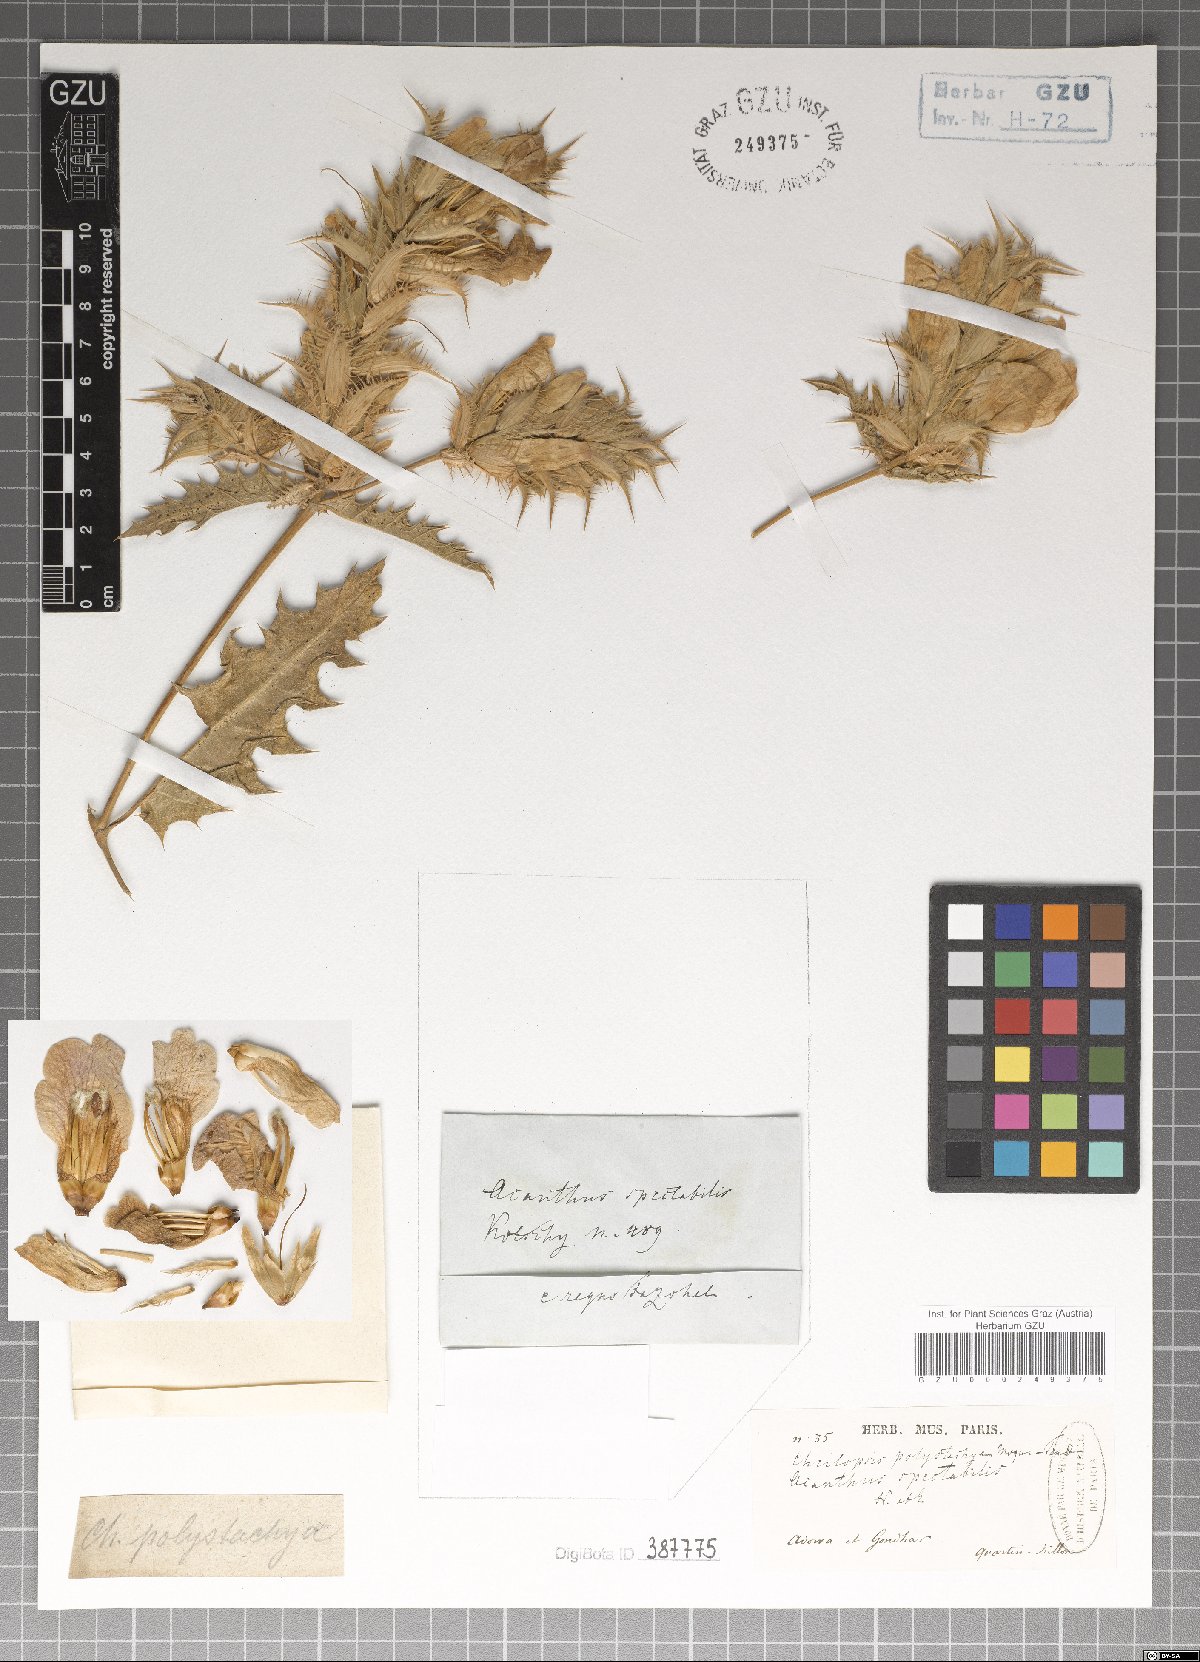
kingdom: Plantae
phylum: Tracheophyta
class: Magnoliopsida
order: Lamiales
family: Acanthaceae
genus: Acanthus
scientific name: Acanthus arboreus
